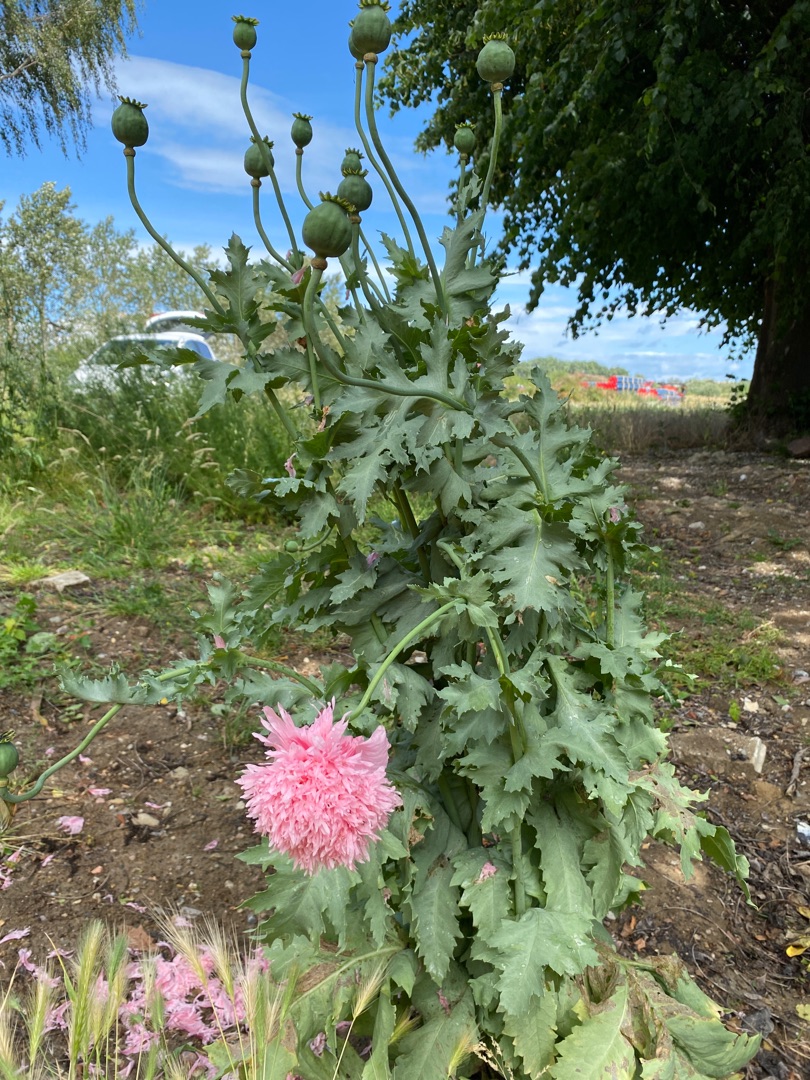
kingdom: Plantae
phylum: Tracheophyta
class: Magnoliopsida
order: Ranunculales
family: Papaveraceae
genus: Papaver
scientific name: Papaver somniferum
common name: Opium-valmue
